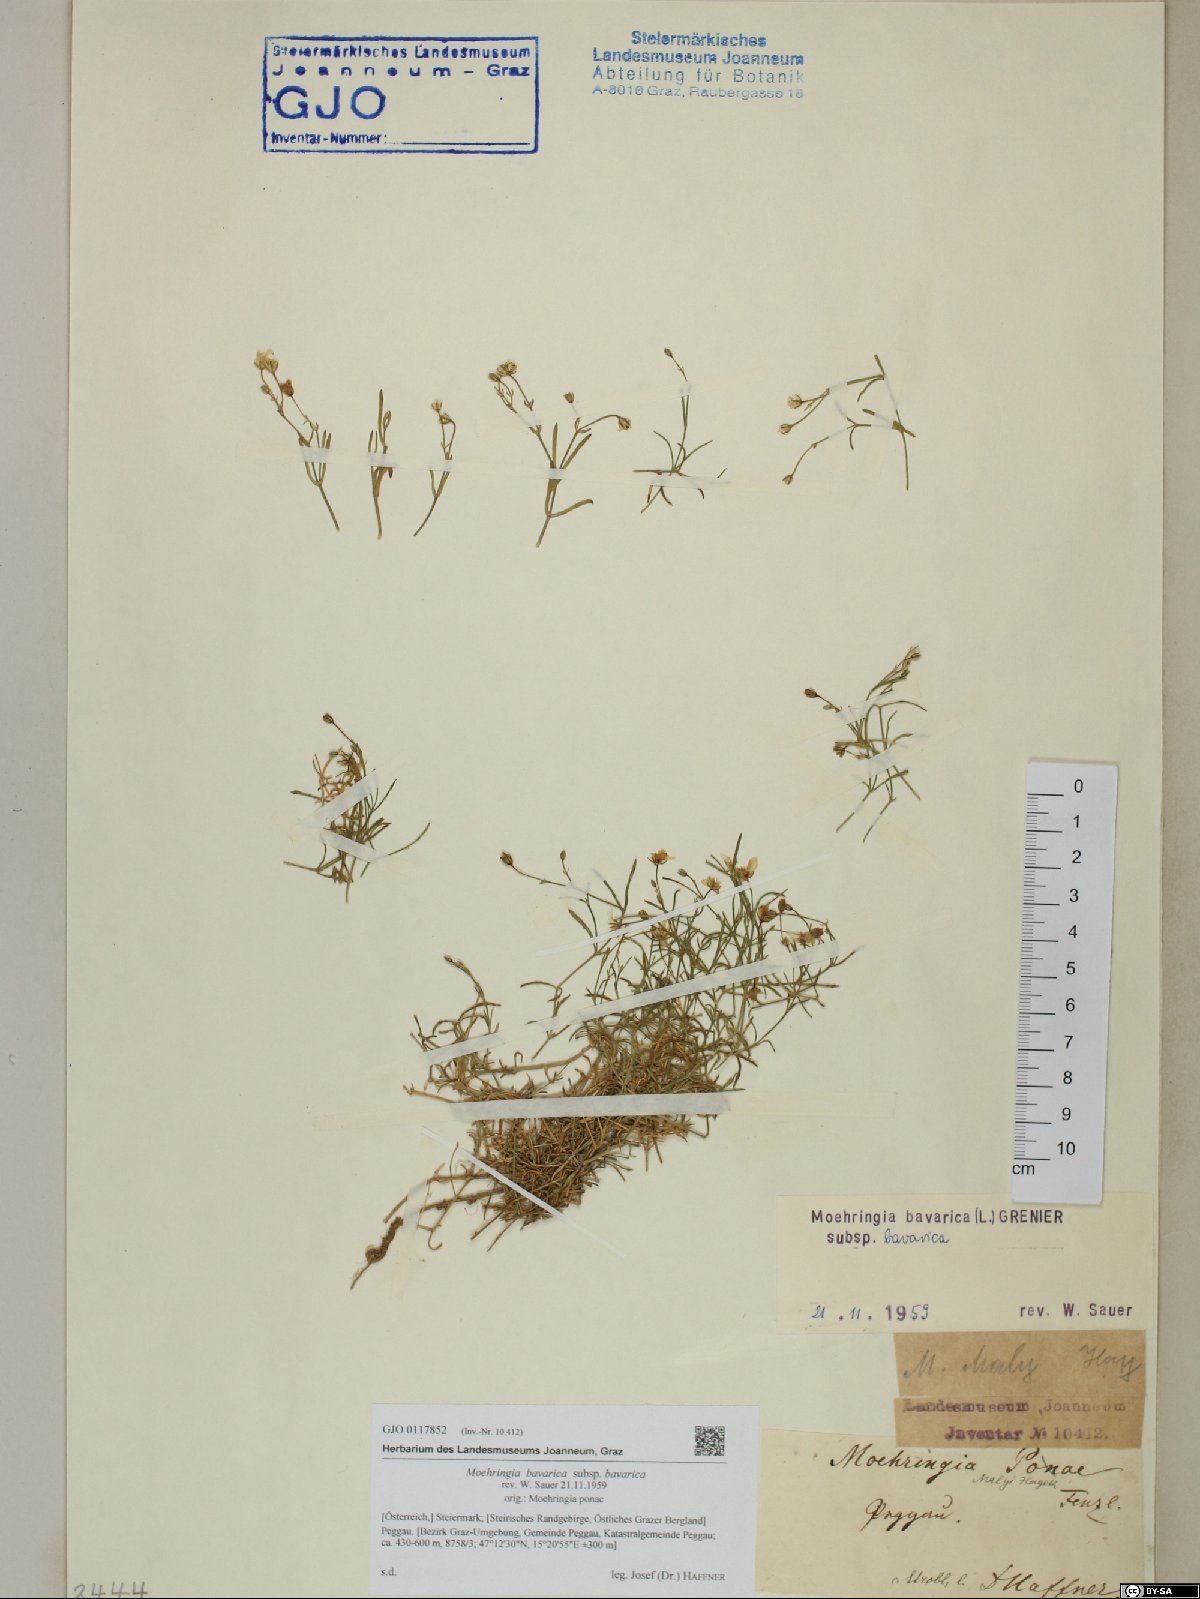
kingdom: Plantae
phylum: Tracheophyta
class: Magnoliopsida
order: Caryophyllales
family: Caryophyllaceae
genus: Moehringia
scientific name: Moehringia bavarica
